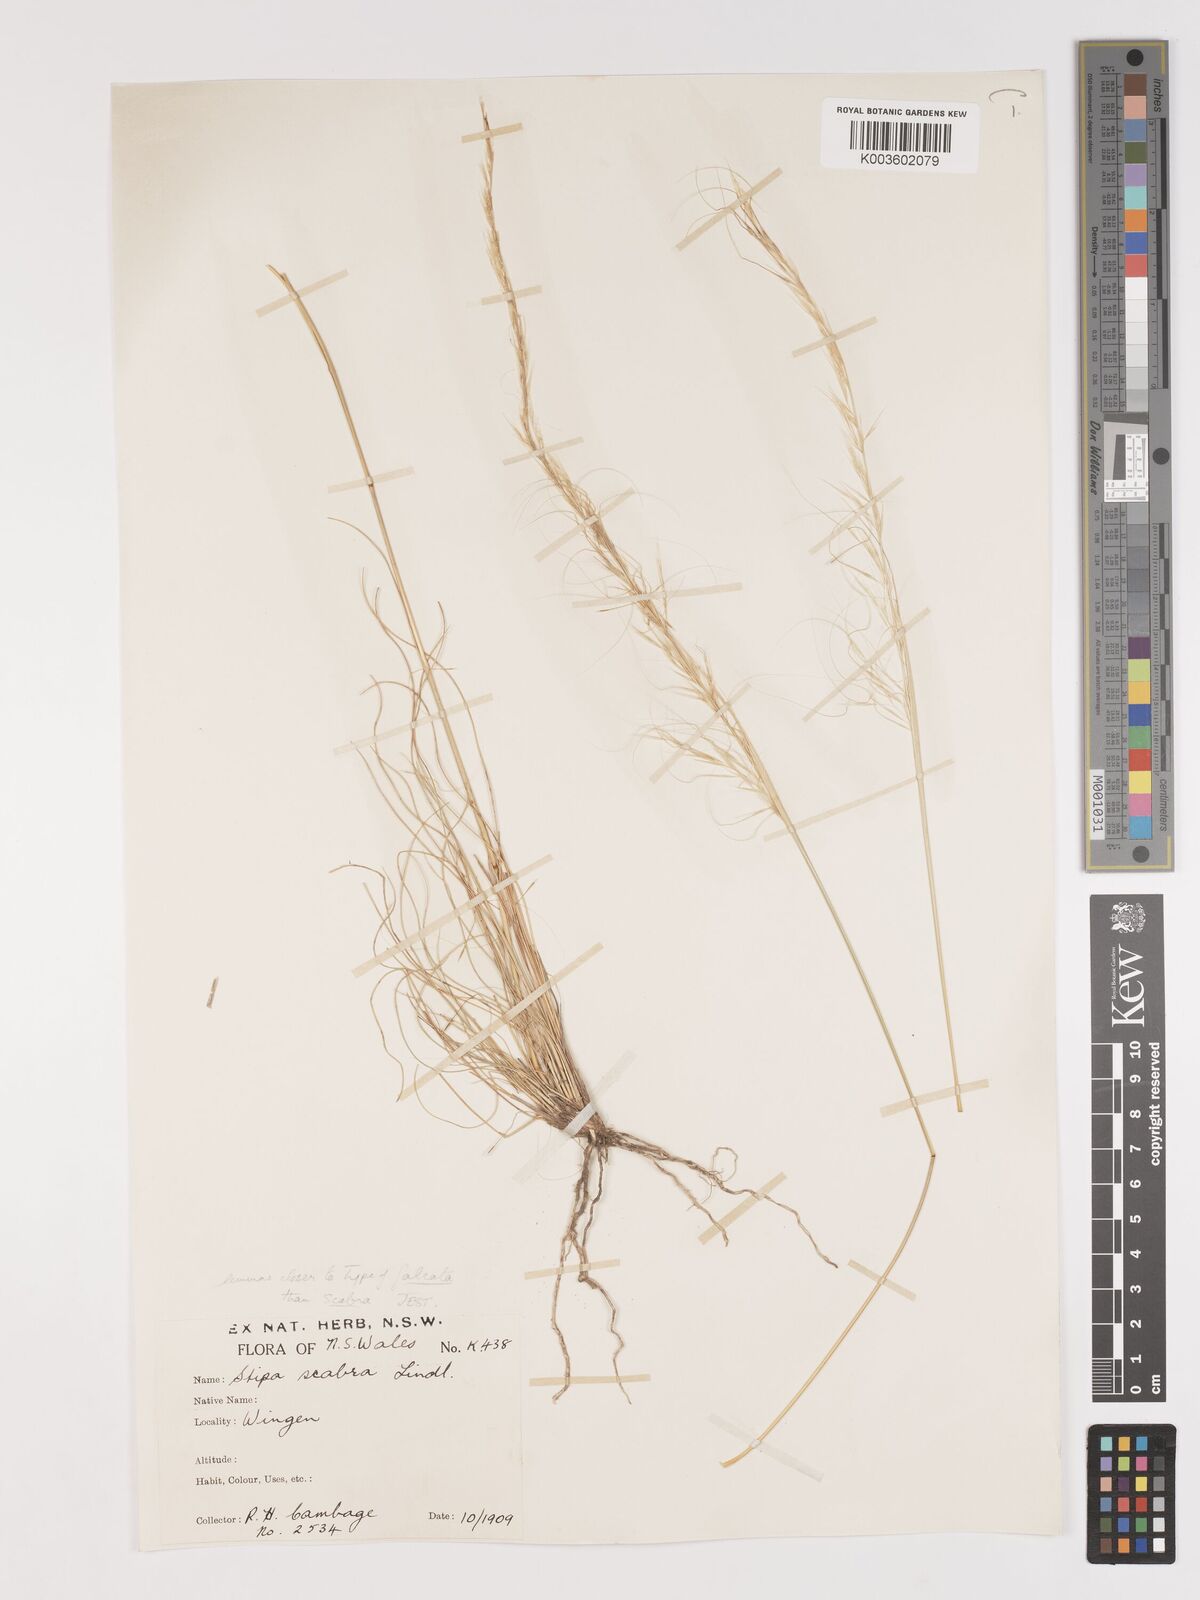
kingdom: Plantae
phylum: Tracheophyta
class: Liliopsida
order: Poales
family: Poaceae
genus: Austrostipa
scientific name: Austrostipa scabra
